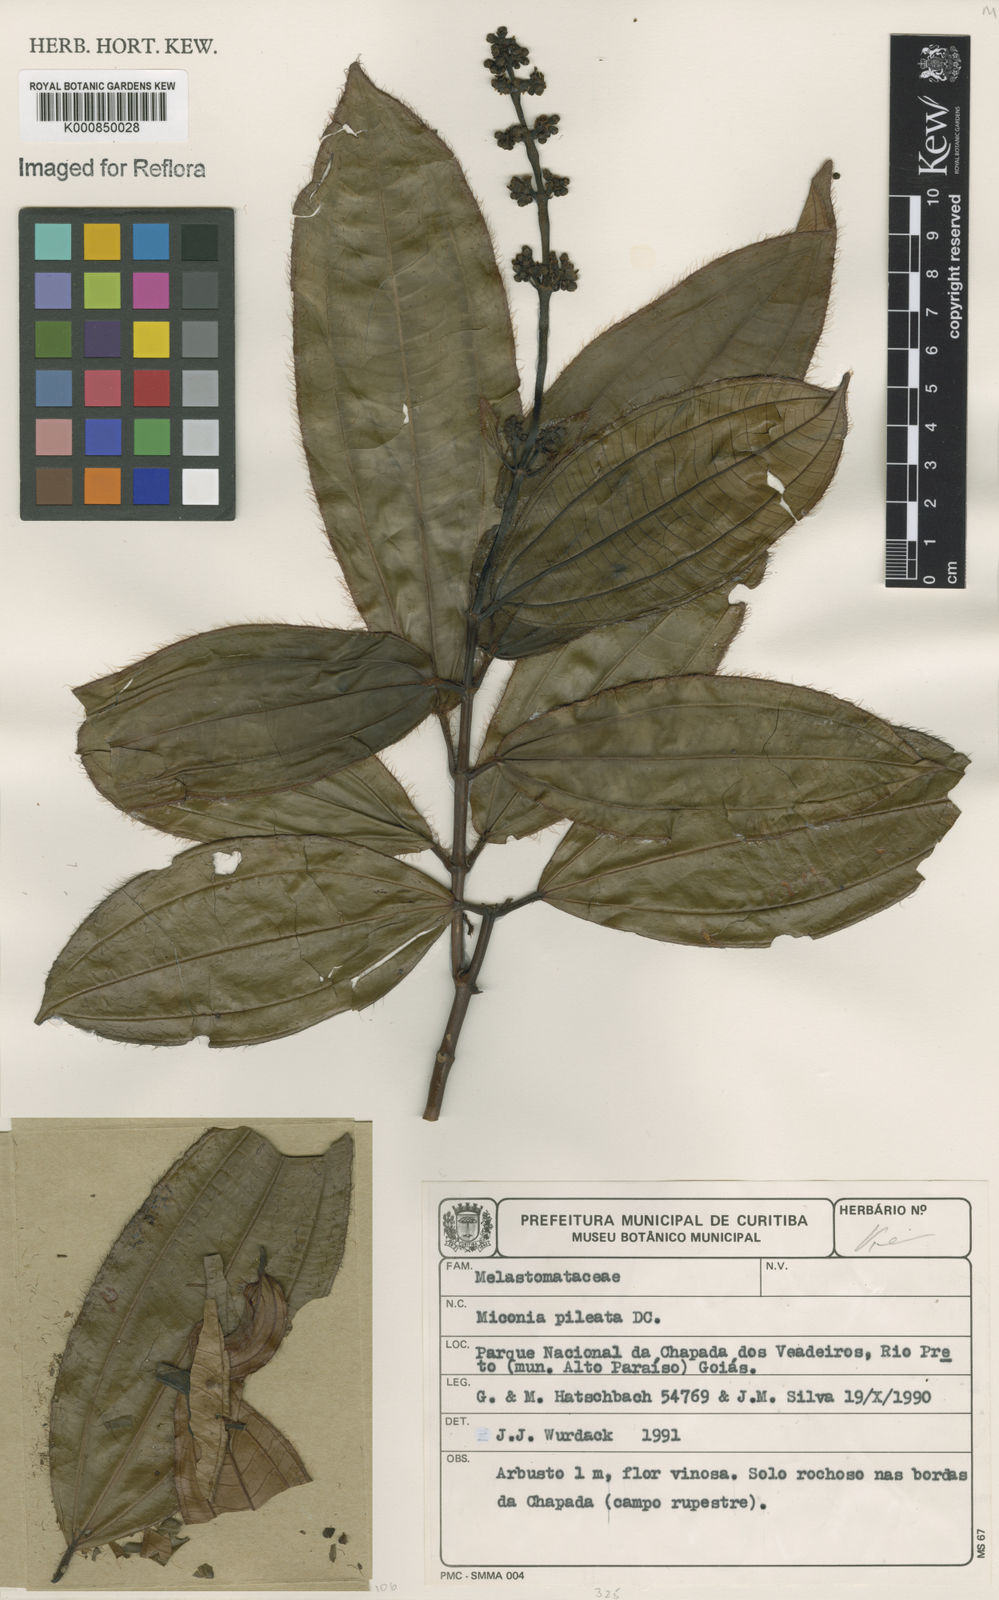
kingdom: Plantae
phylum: Tracheophyta
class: Magnoliopsida
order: Myrtales
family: Melastomataceae
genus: Miconia
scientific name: Miconia pileata
